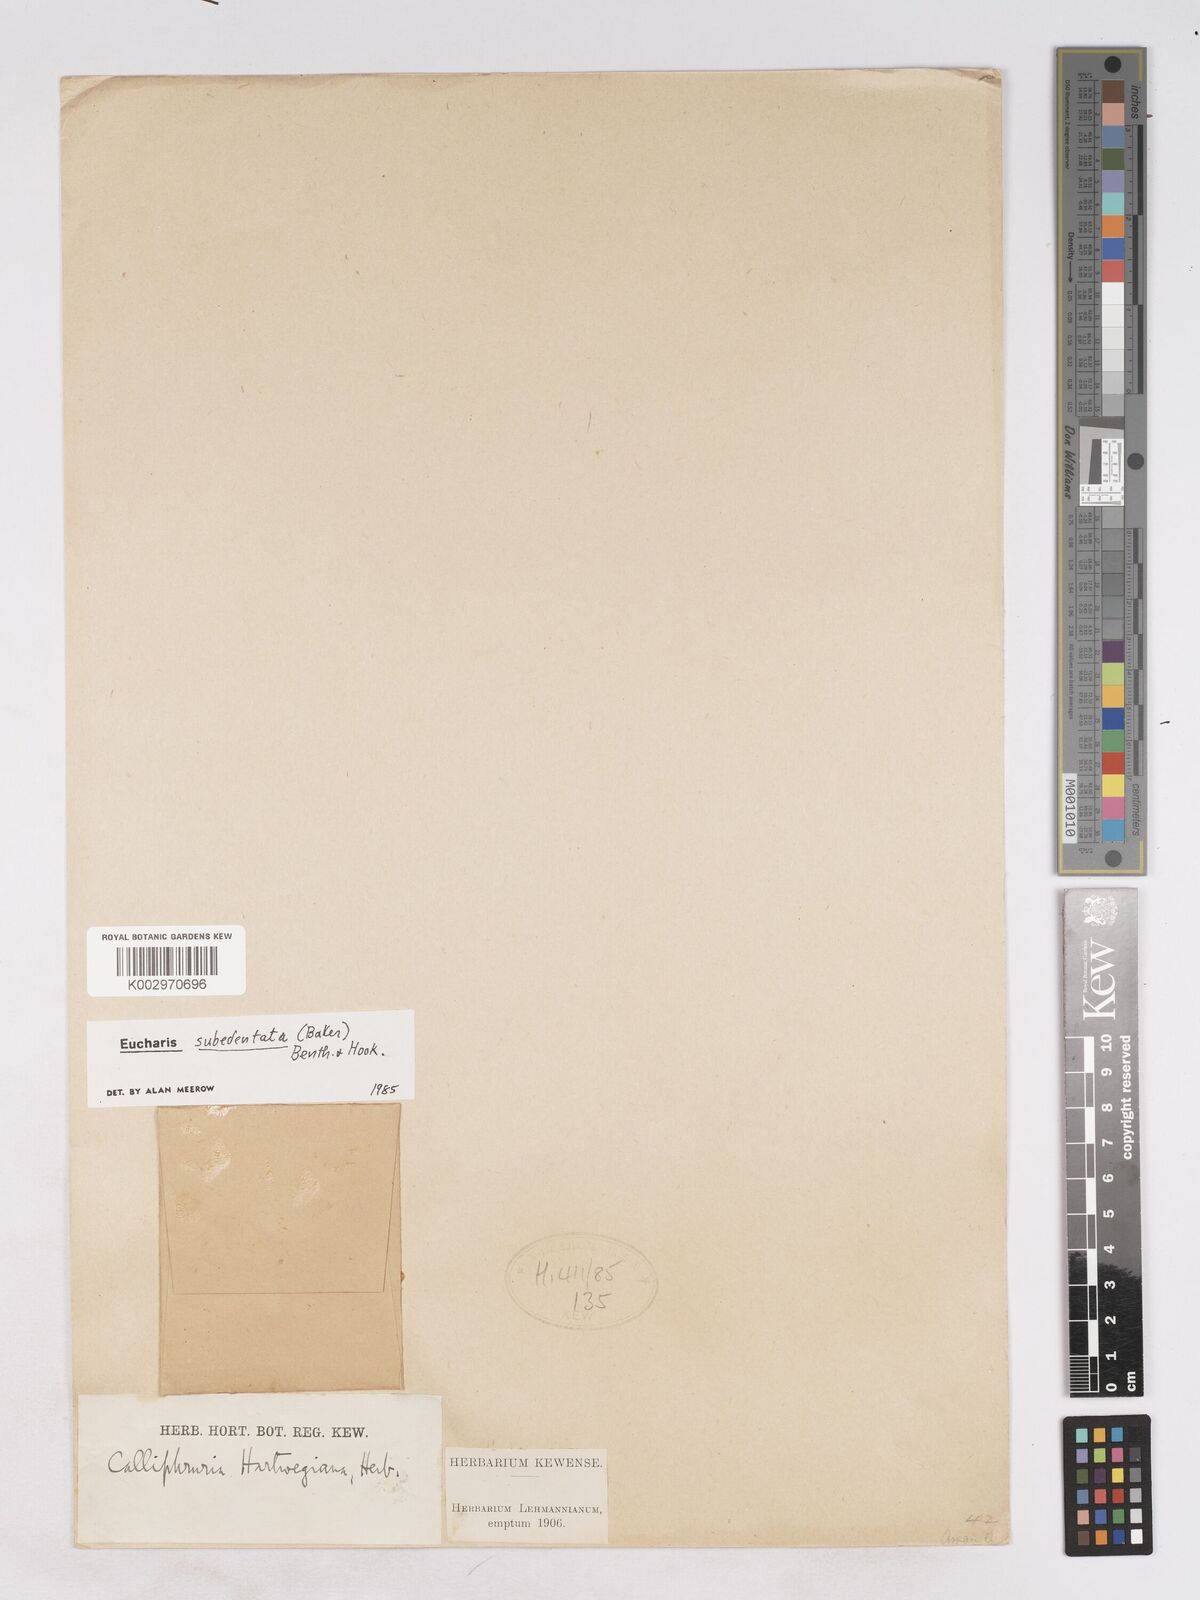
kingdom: Plantae
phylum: Tracheophyta
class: Liliopsida
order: Asparagales
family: Amaryllidaceae
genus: Urceolina
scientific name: Urceolina subedentata
